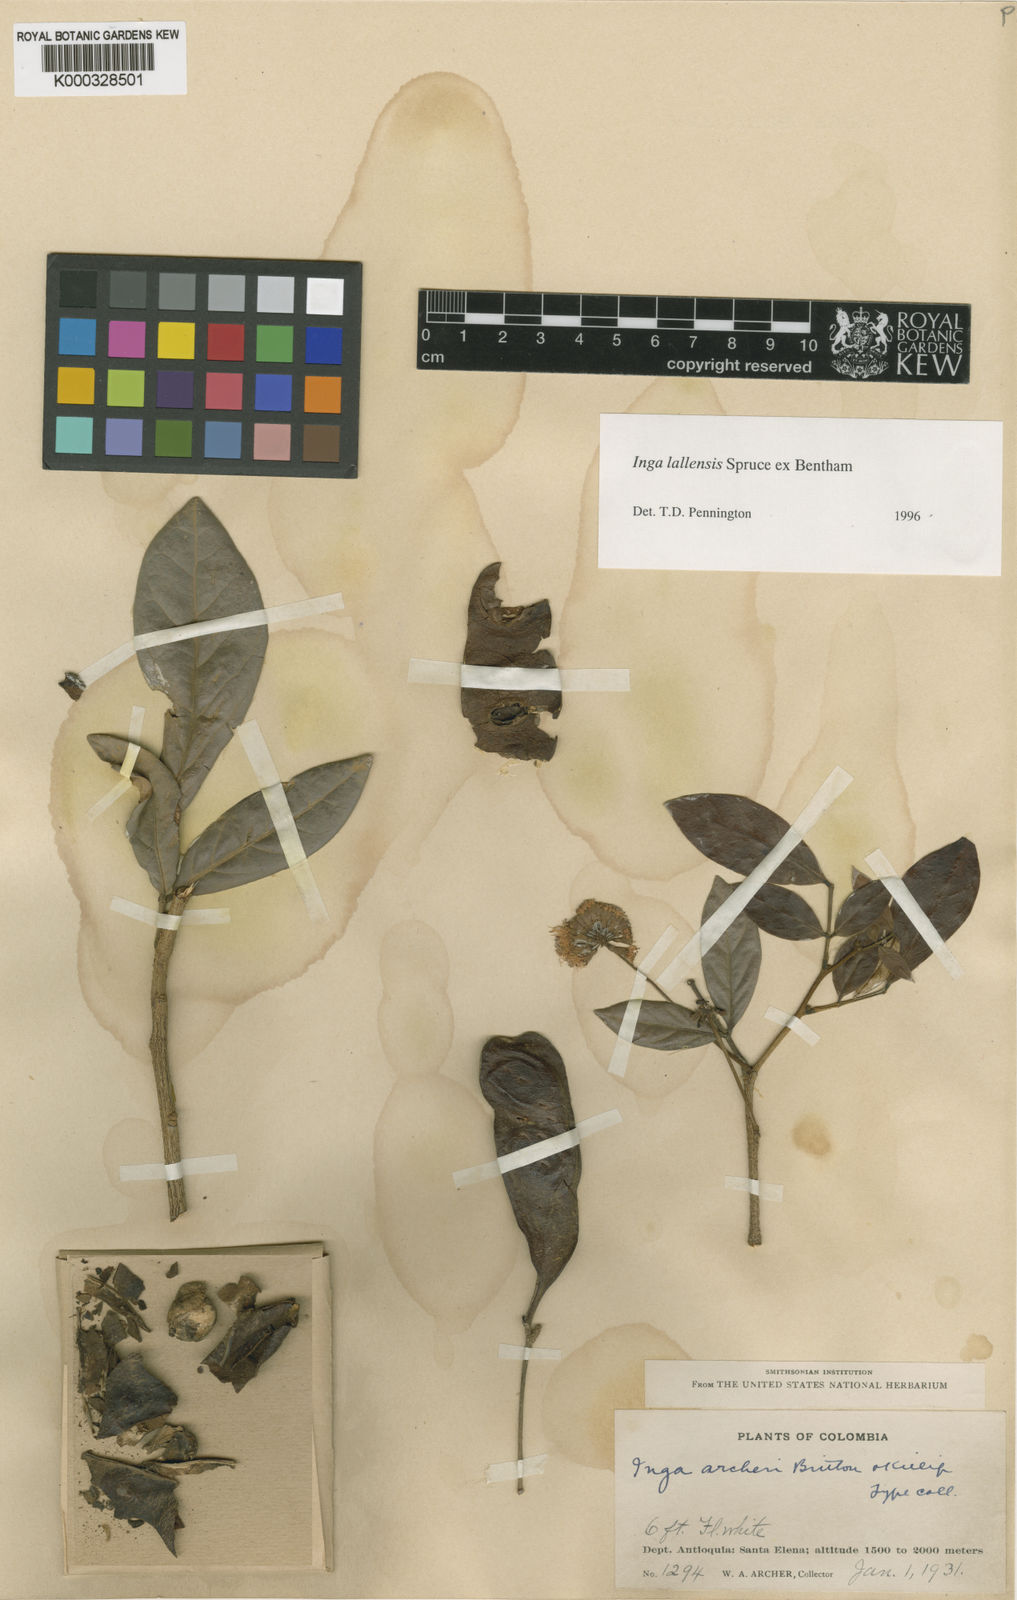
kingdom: Plantae
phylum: Tracheophyta
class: Magnoliopsida
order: Fabales
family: Fabaceae
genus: Inga
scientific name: Inga lallensis
